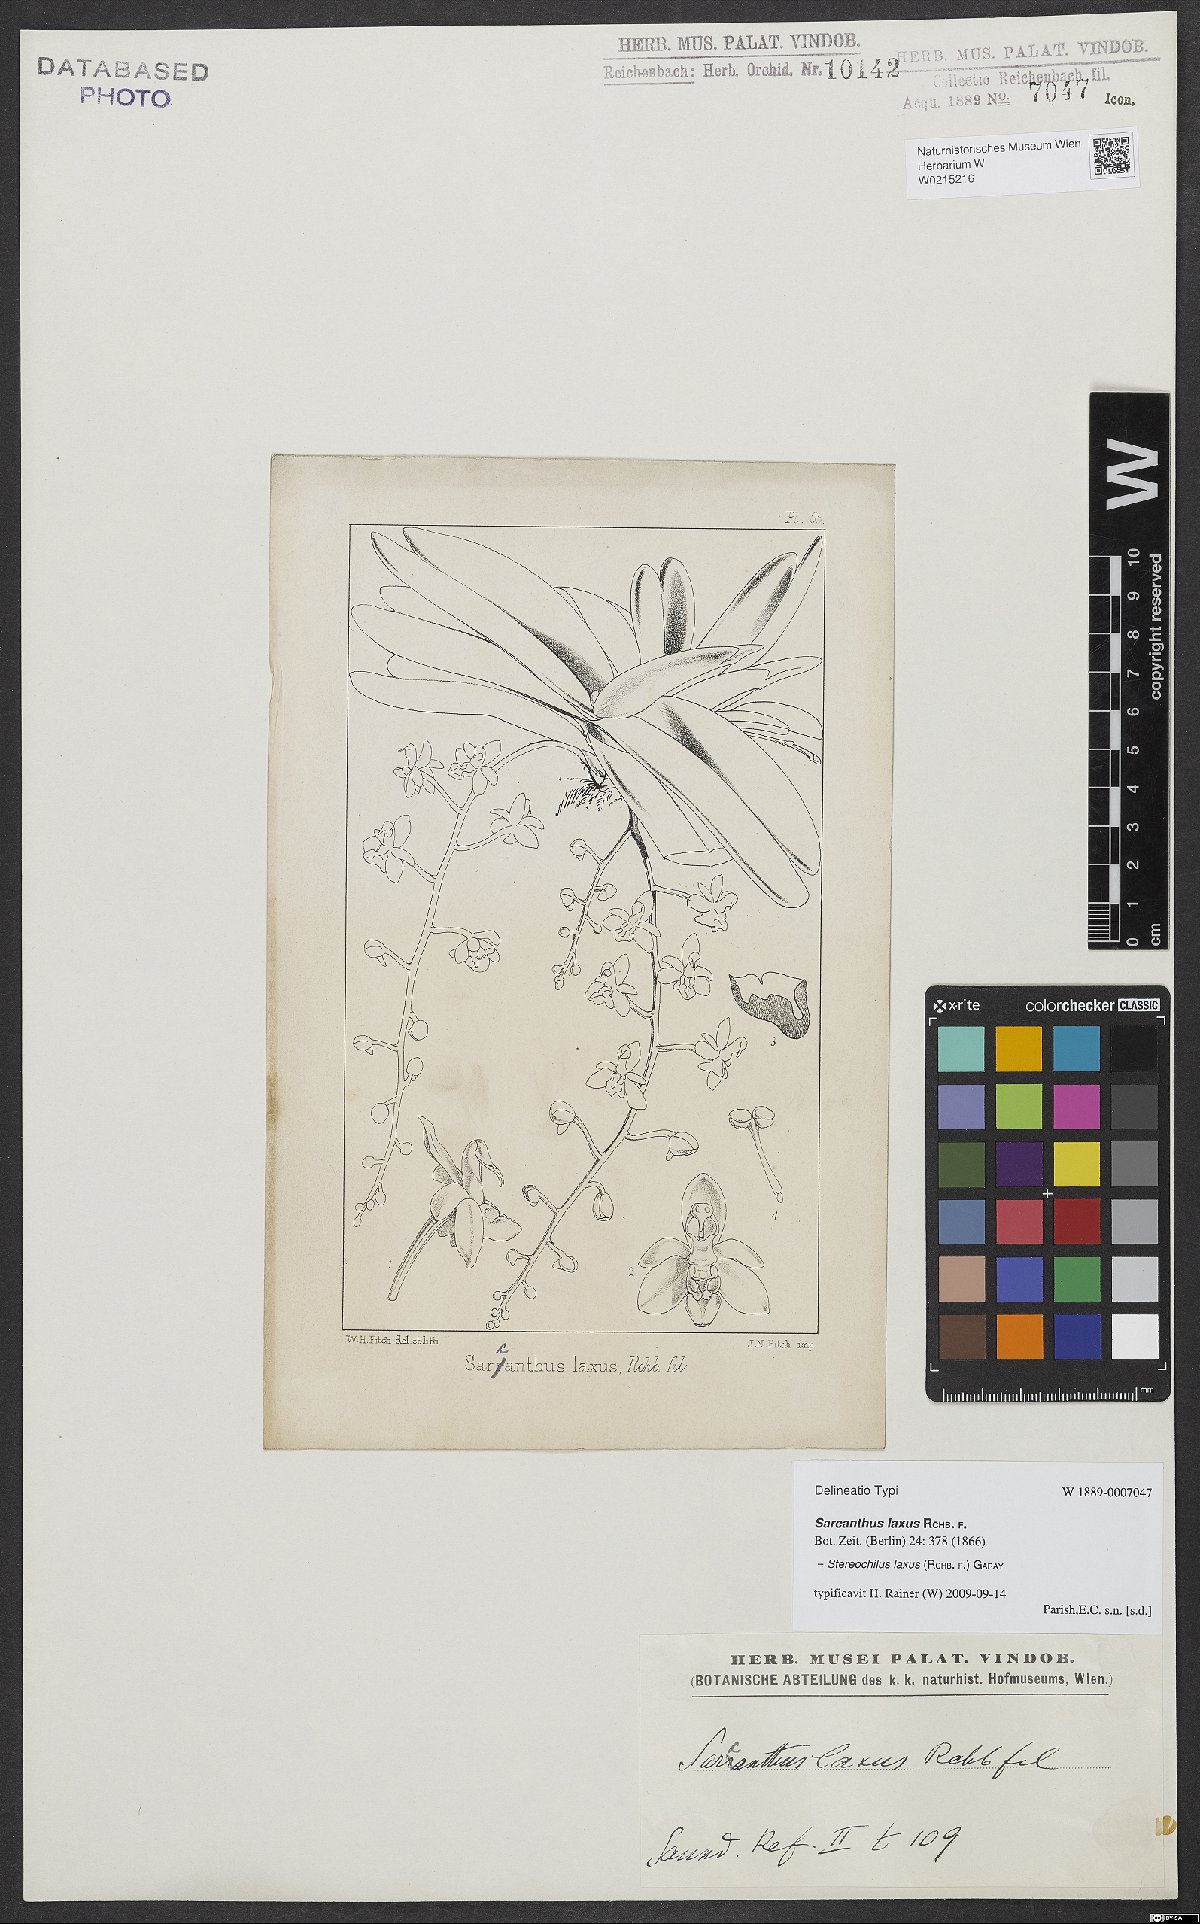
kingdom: Plantae
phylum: Tracheophyta
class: Liliopsida
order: Asparagales
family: Orchidaceae
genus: Stereochilus
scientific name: Stereochilus laxus
